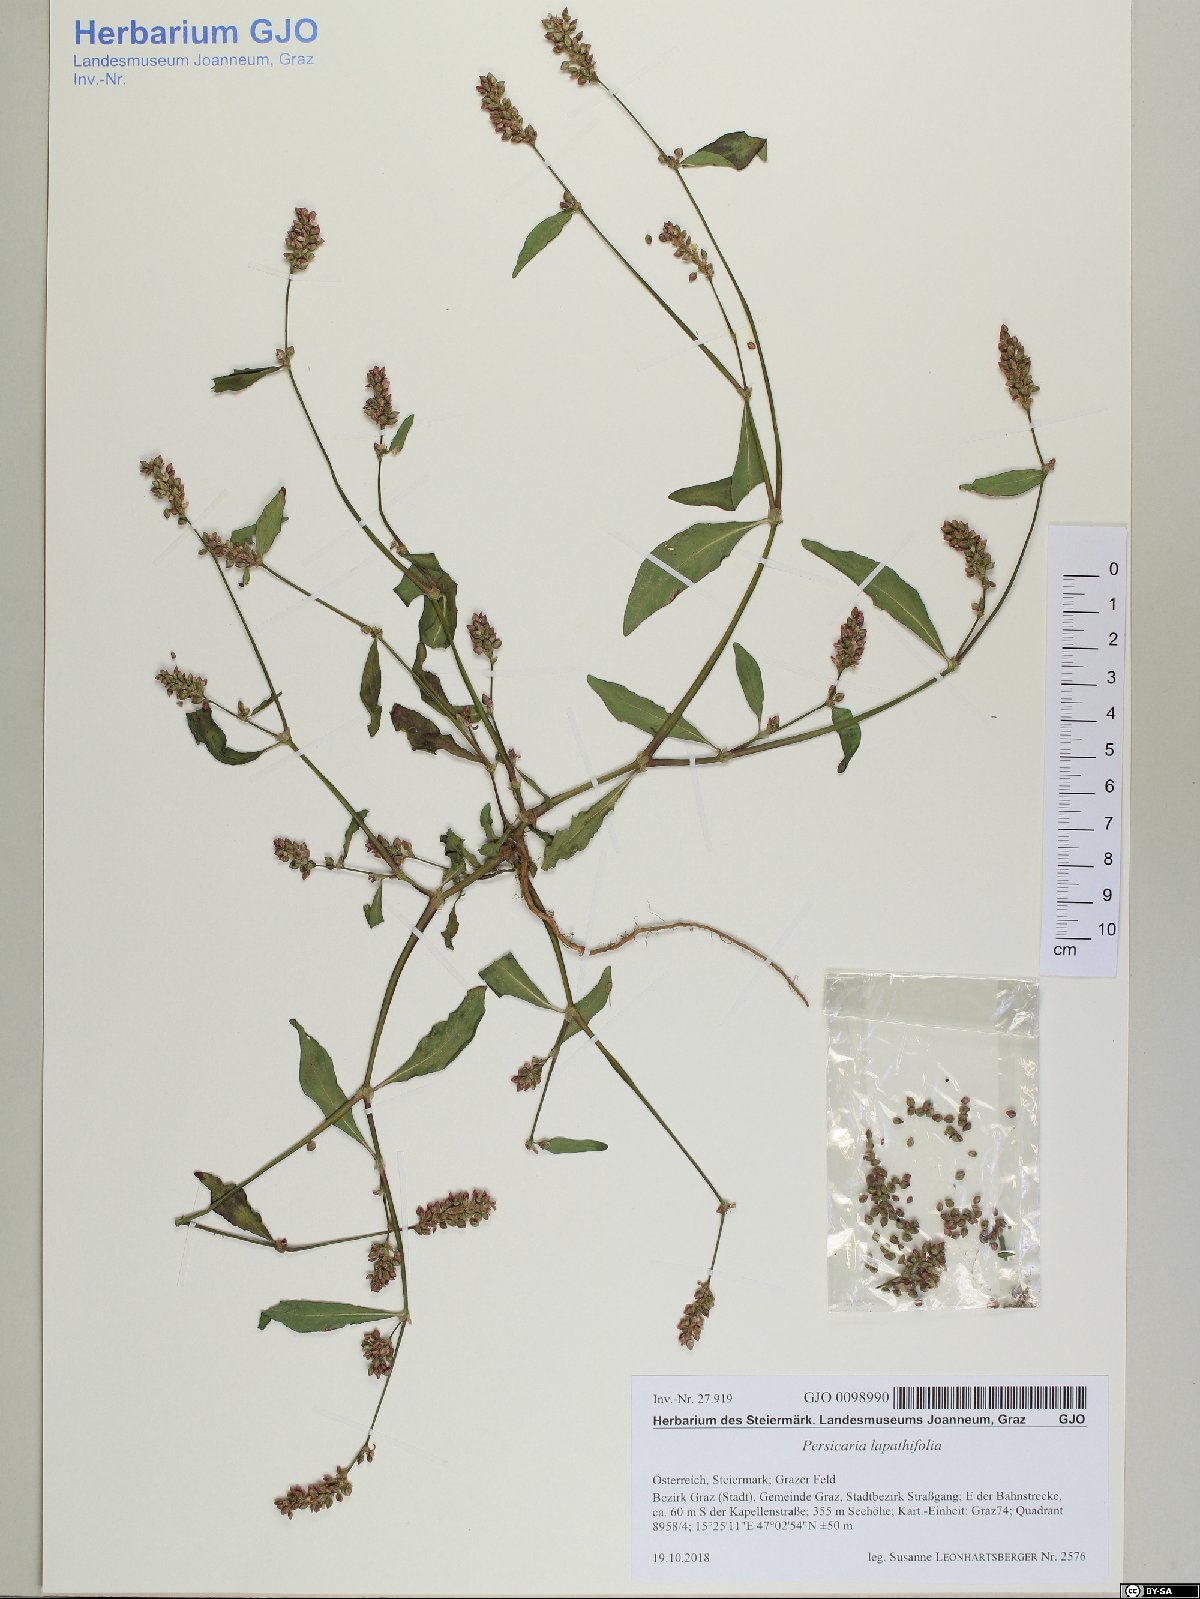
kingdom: Plantae
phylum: Tracheophyta
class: Magnoliopsida
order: Caryophyllales
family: Polygonaceae
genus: Persicaria
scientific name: Persicaria lapathifolia
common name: Curlytop knotweed
